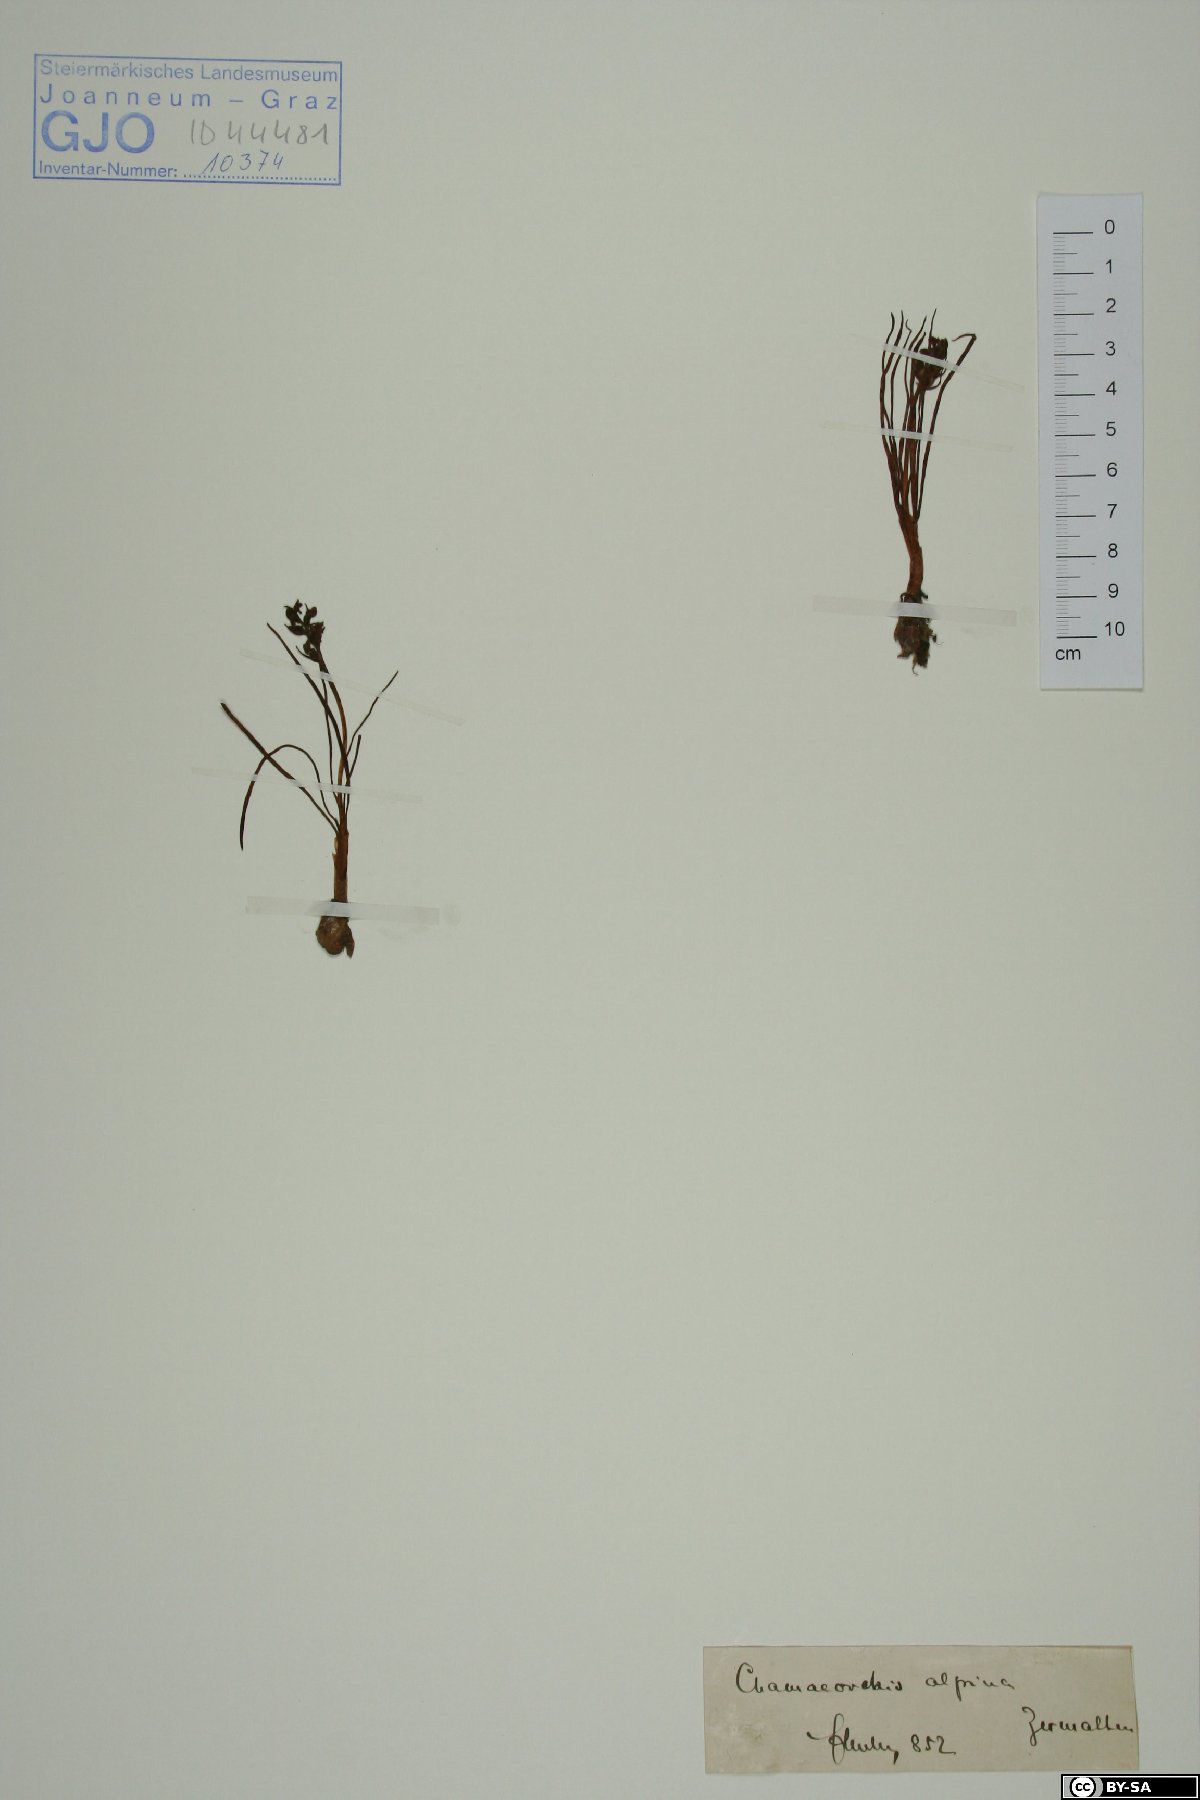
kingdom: Plantae
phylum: Tracheophyta
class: Liliopsida
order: Asparagales
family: Orchidaceae
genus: Chamorchis
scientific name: Chamorchis alpina
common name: Alpine chamorchis
